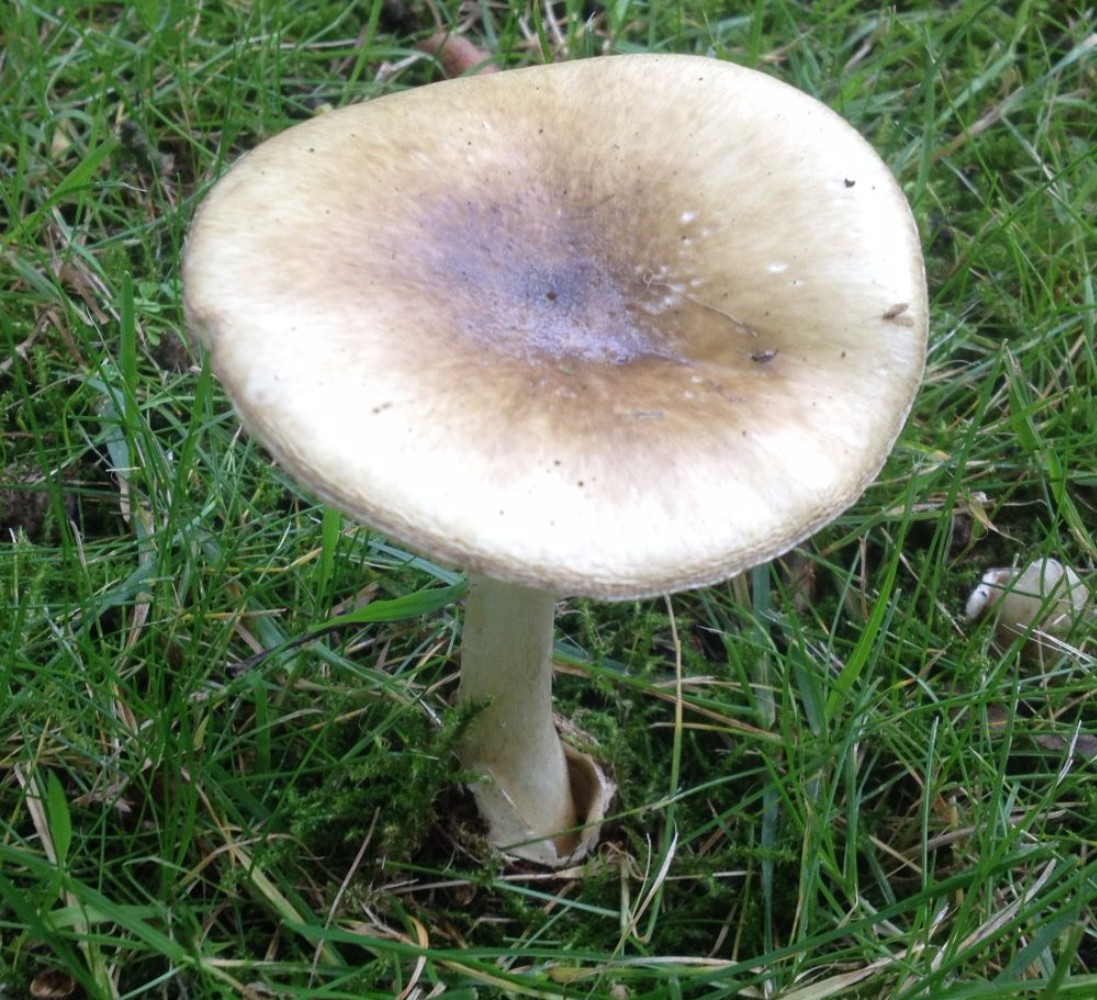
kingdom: Fungi
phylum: Basidiomycota
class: Agaricomycetes
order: Agaricales
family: Amanitaceae
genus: Amanita
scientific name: Amanita phalloides
